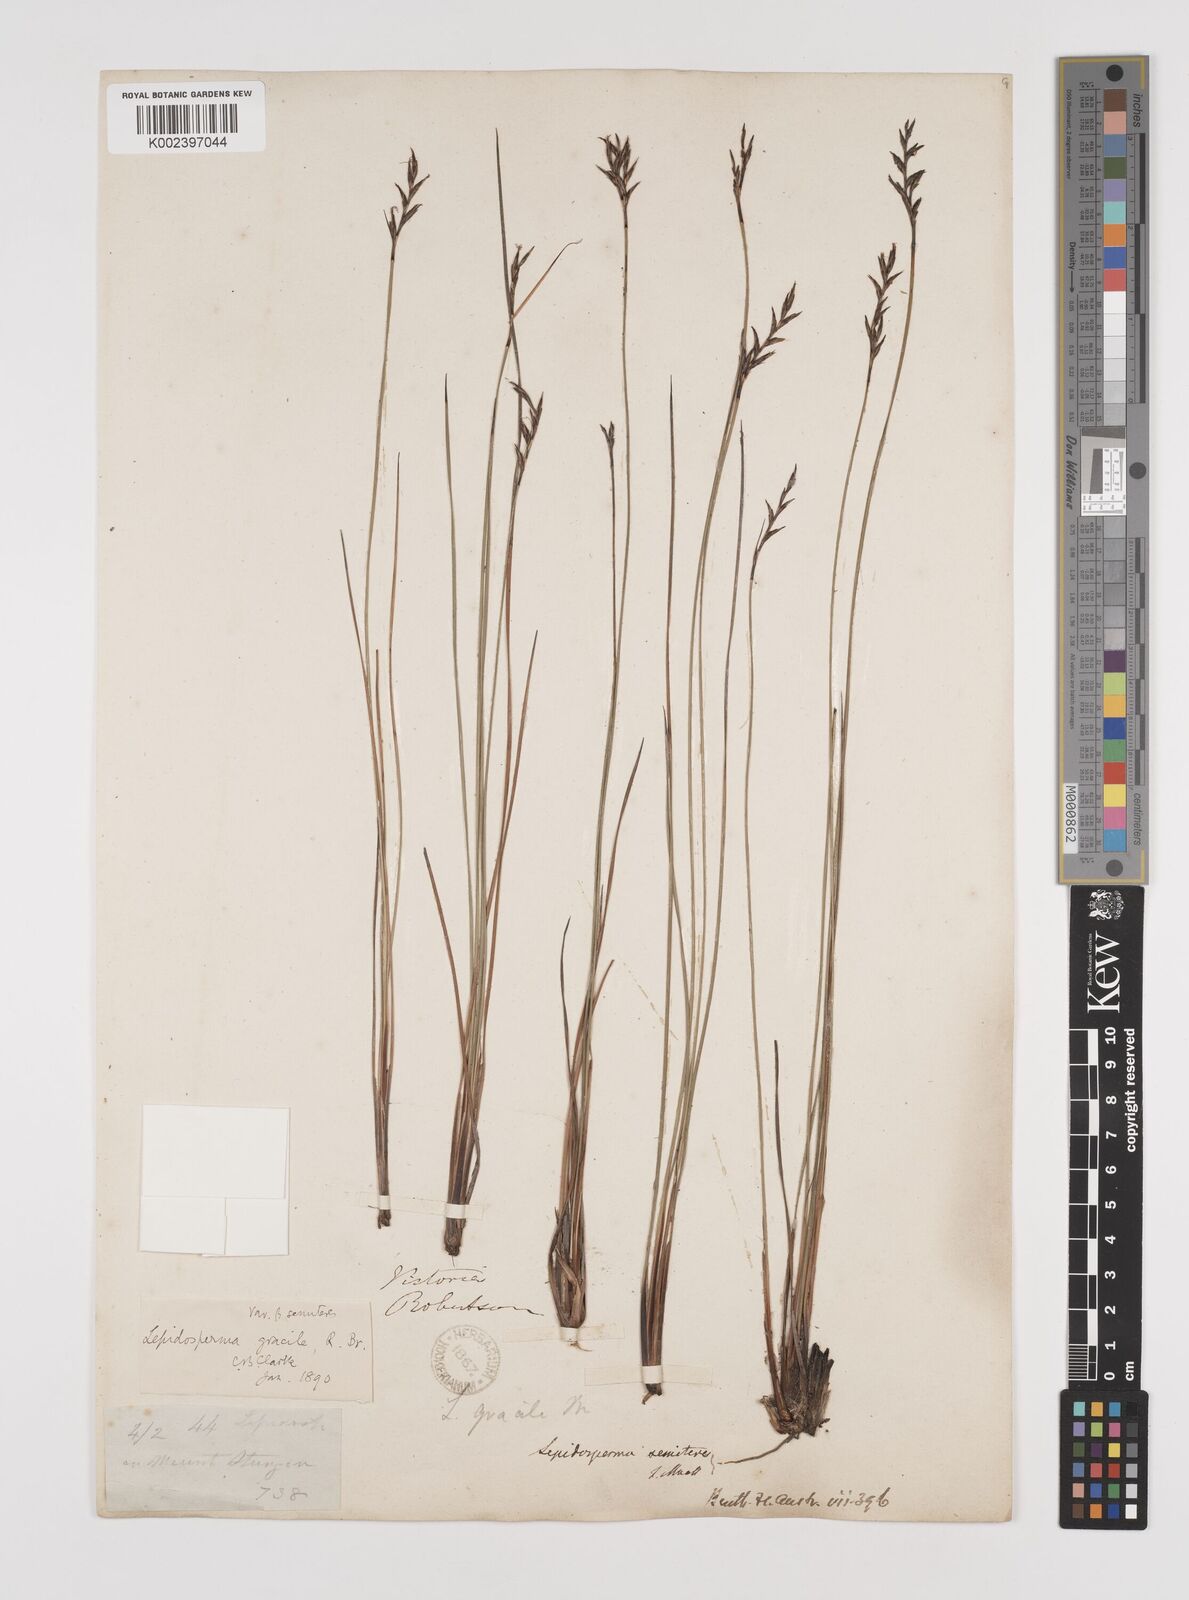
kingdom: Plantae
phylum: Tracheophyta
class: Liliopsida
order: Poales
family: Cyperaceae
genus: Lepidosperma
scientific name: Lepidosperma semiteres
